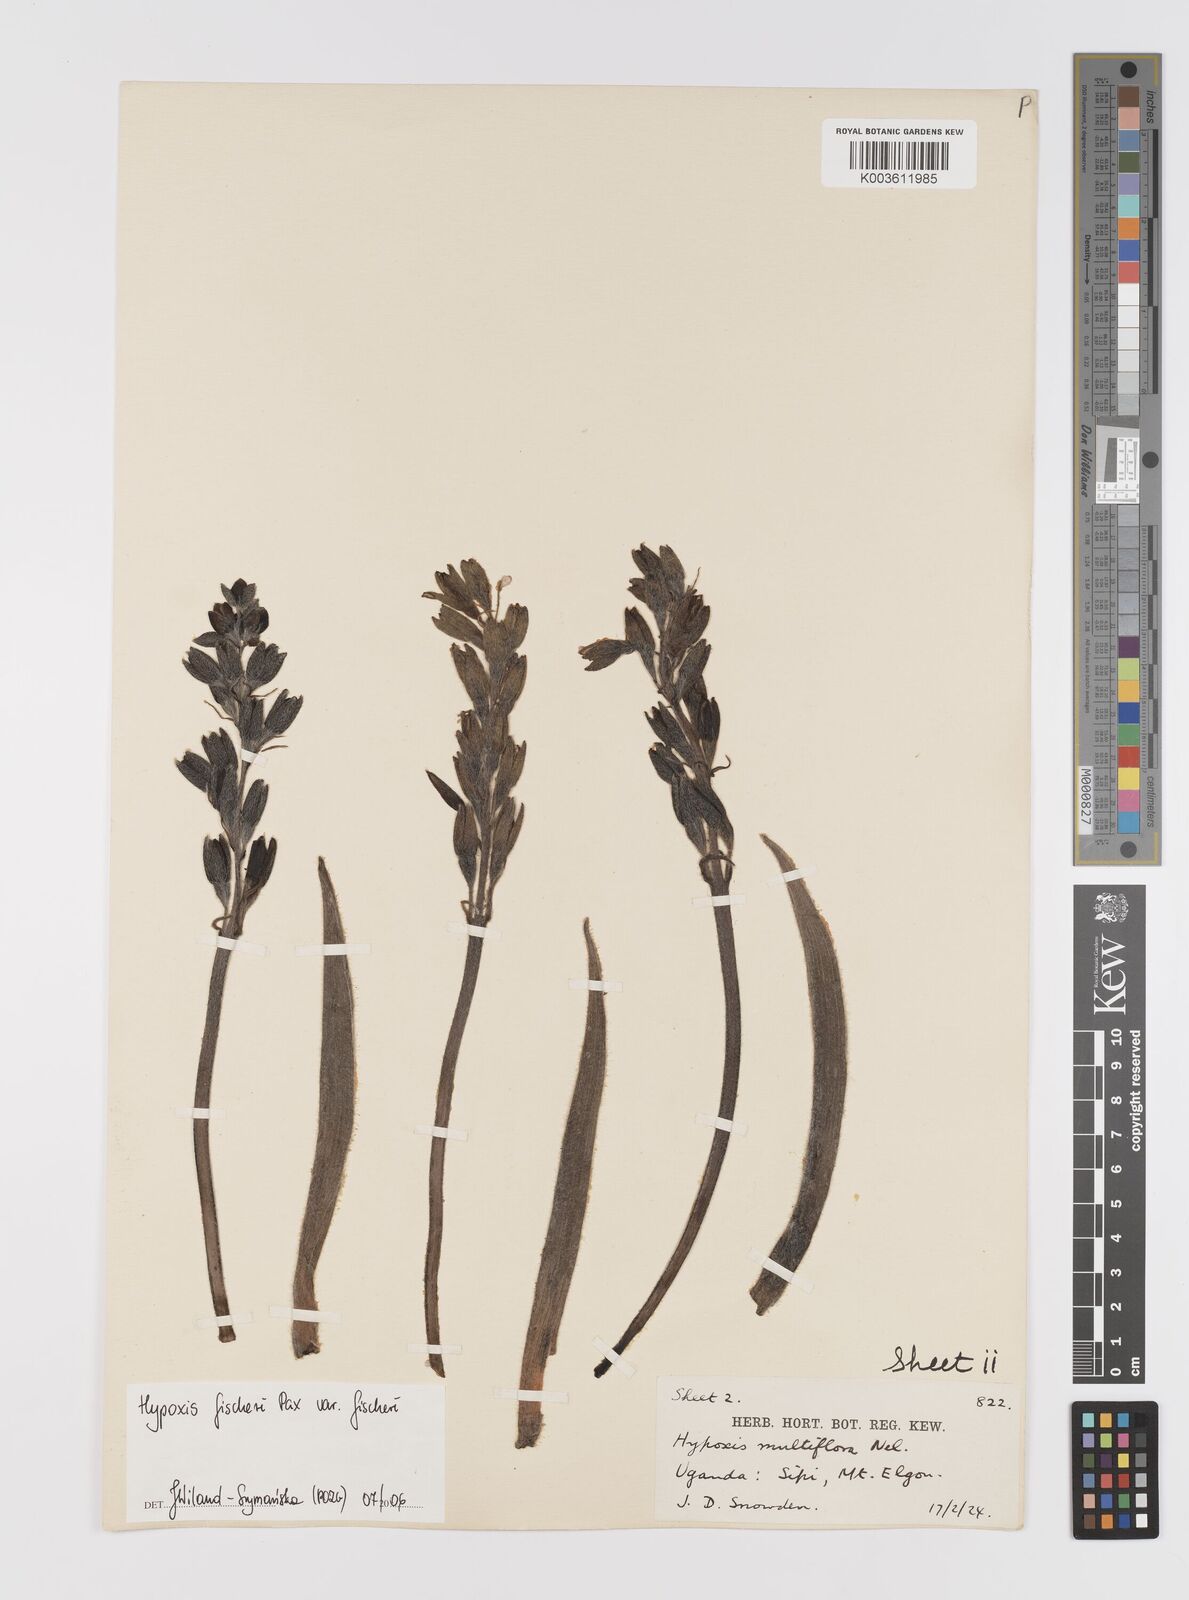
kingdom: Plantae
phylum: Tracheophyta
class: Liliopsida
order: Asparagales
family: Hypoxidaceae
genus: Hypoxis
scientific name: Hypoxis fischeri
